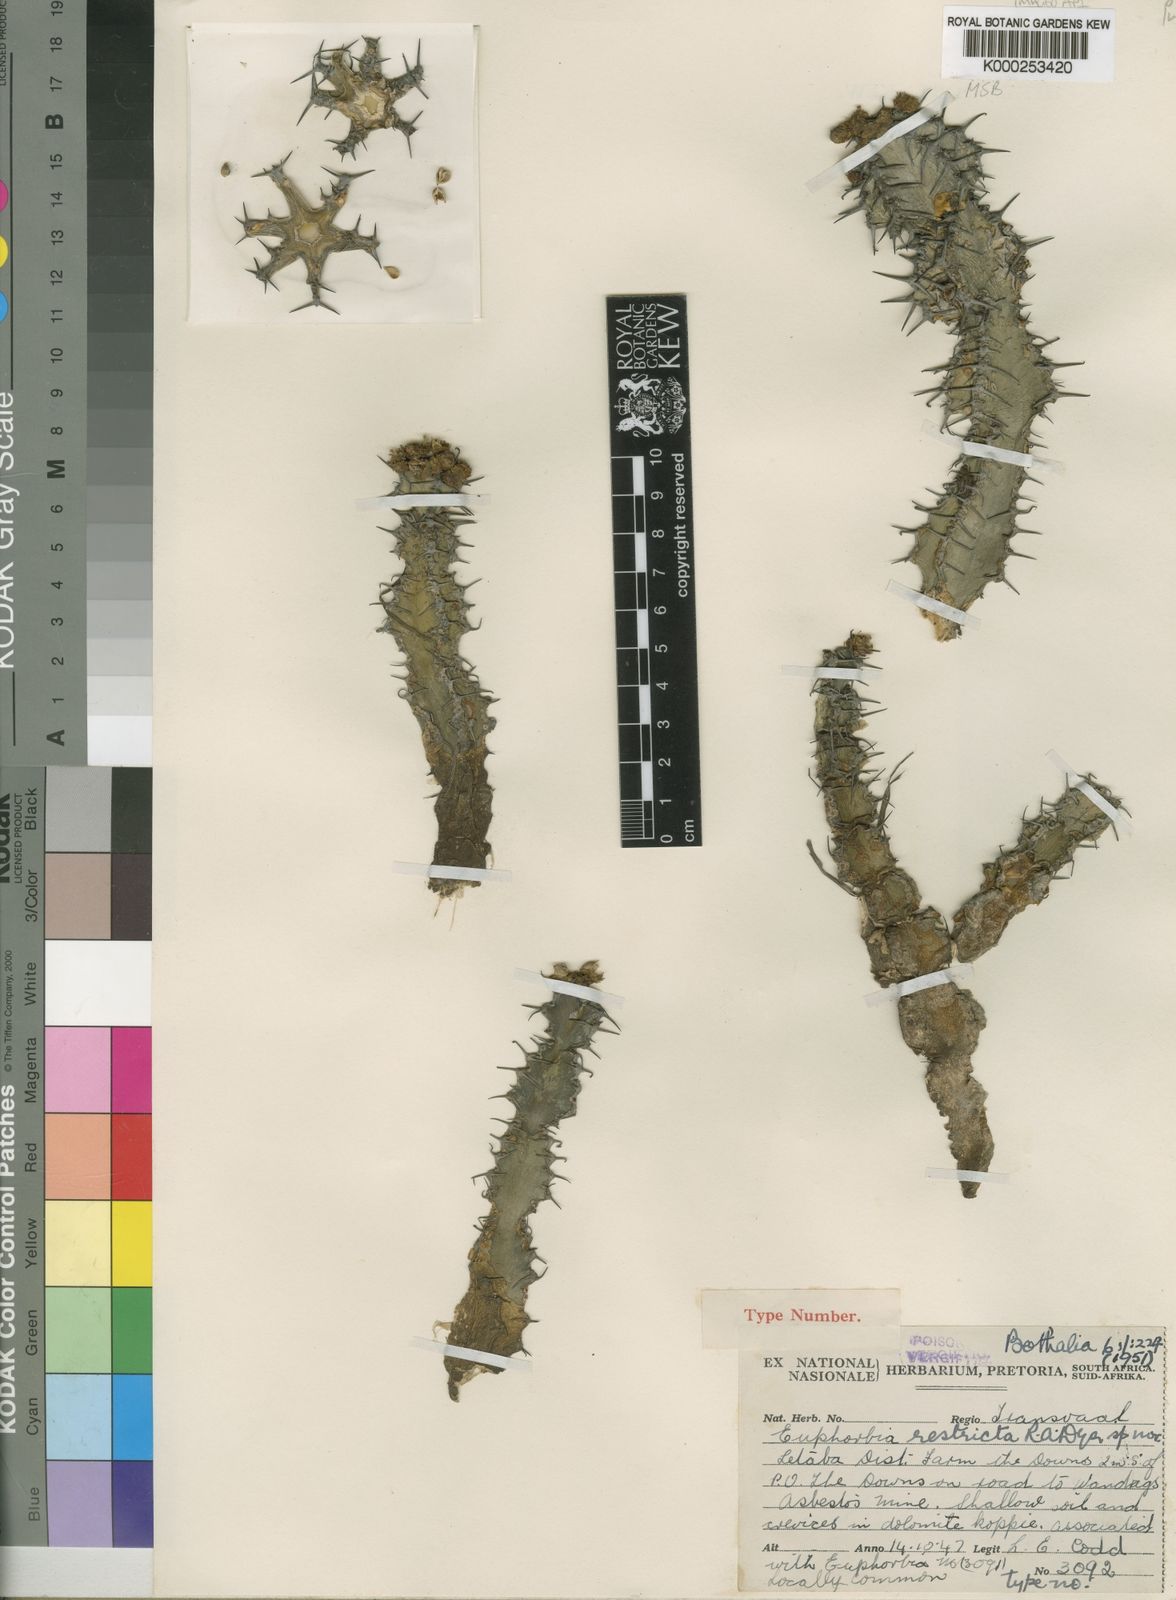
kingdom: Plantae
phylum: Tracheophyta
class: Magnoliopsida
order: Malpighiales
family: Euphorbiaceae
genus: Euphorbia
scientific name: Euphorbia restricta
